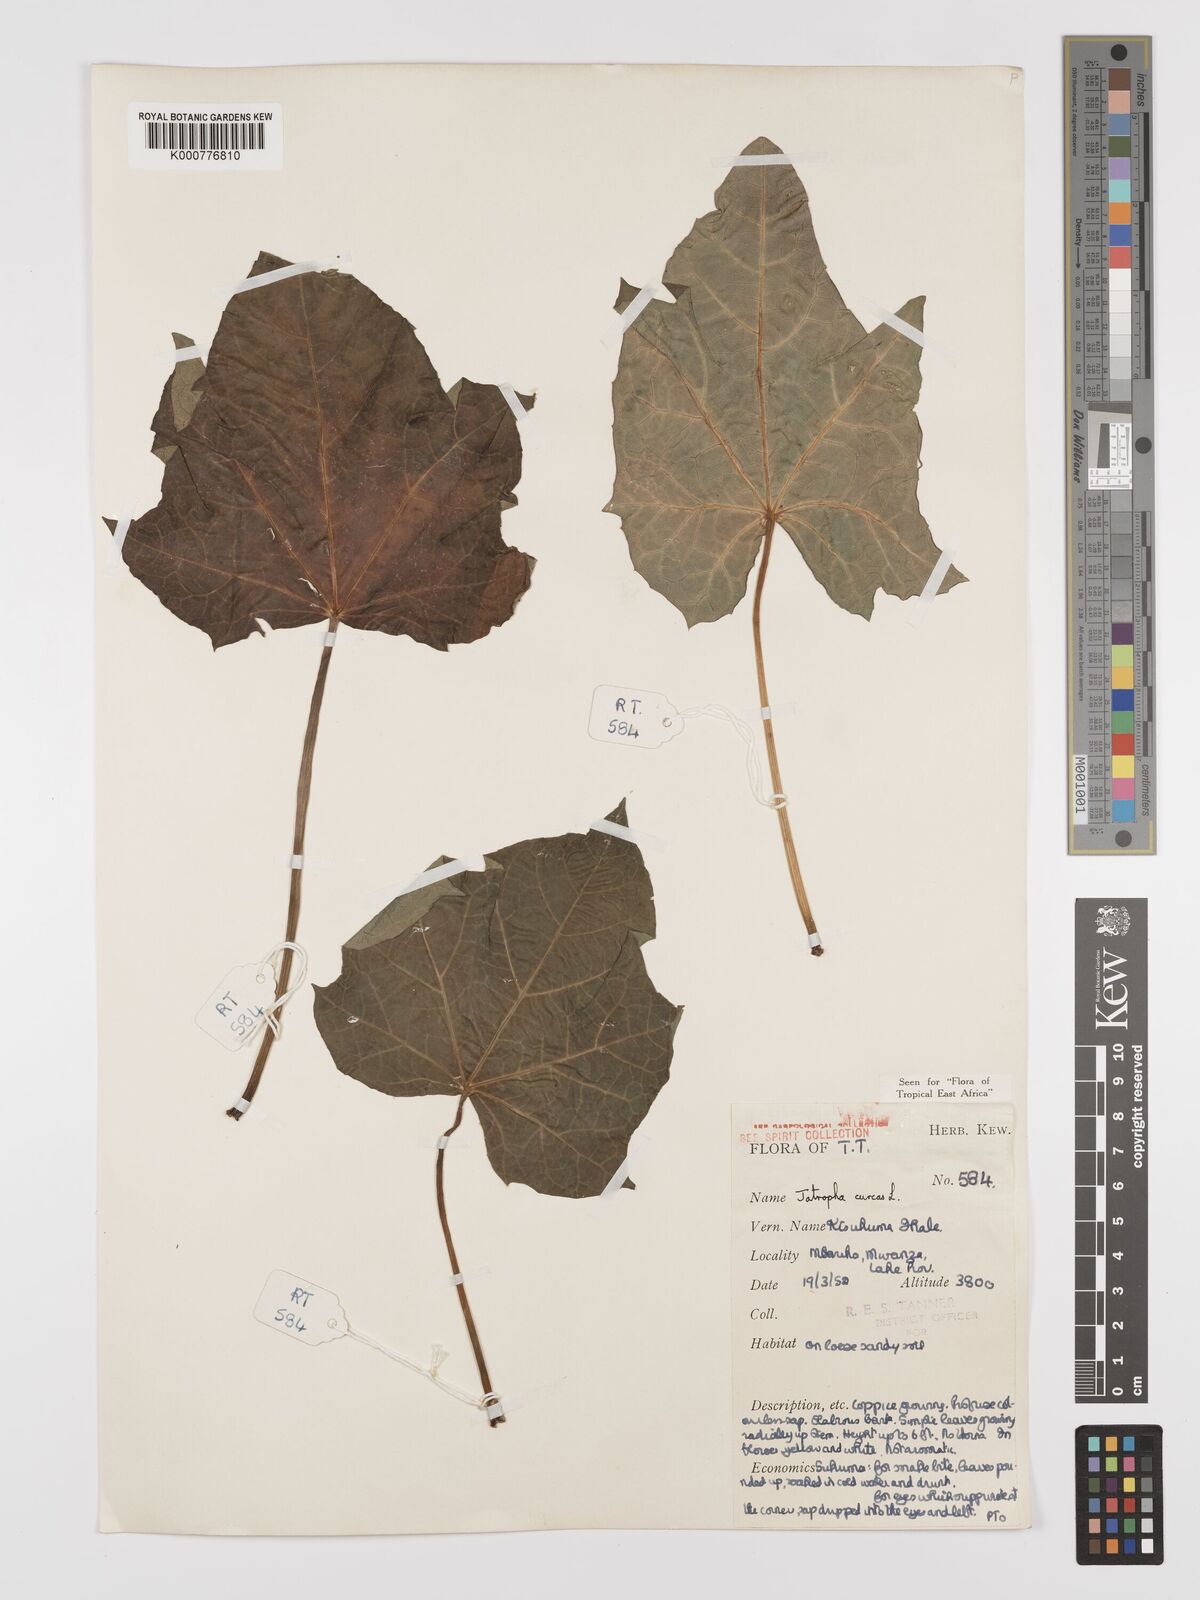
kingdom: Plantae
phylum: Tracheophyta
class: Magnoliopsida
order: Malpighiales
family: Euphorbiaceae
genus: Jatropha
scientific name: Jatropha curcas
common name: Barbados nut
